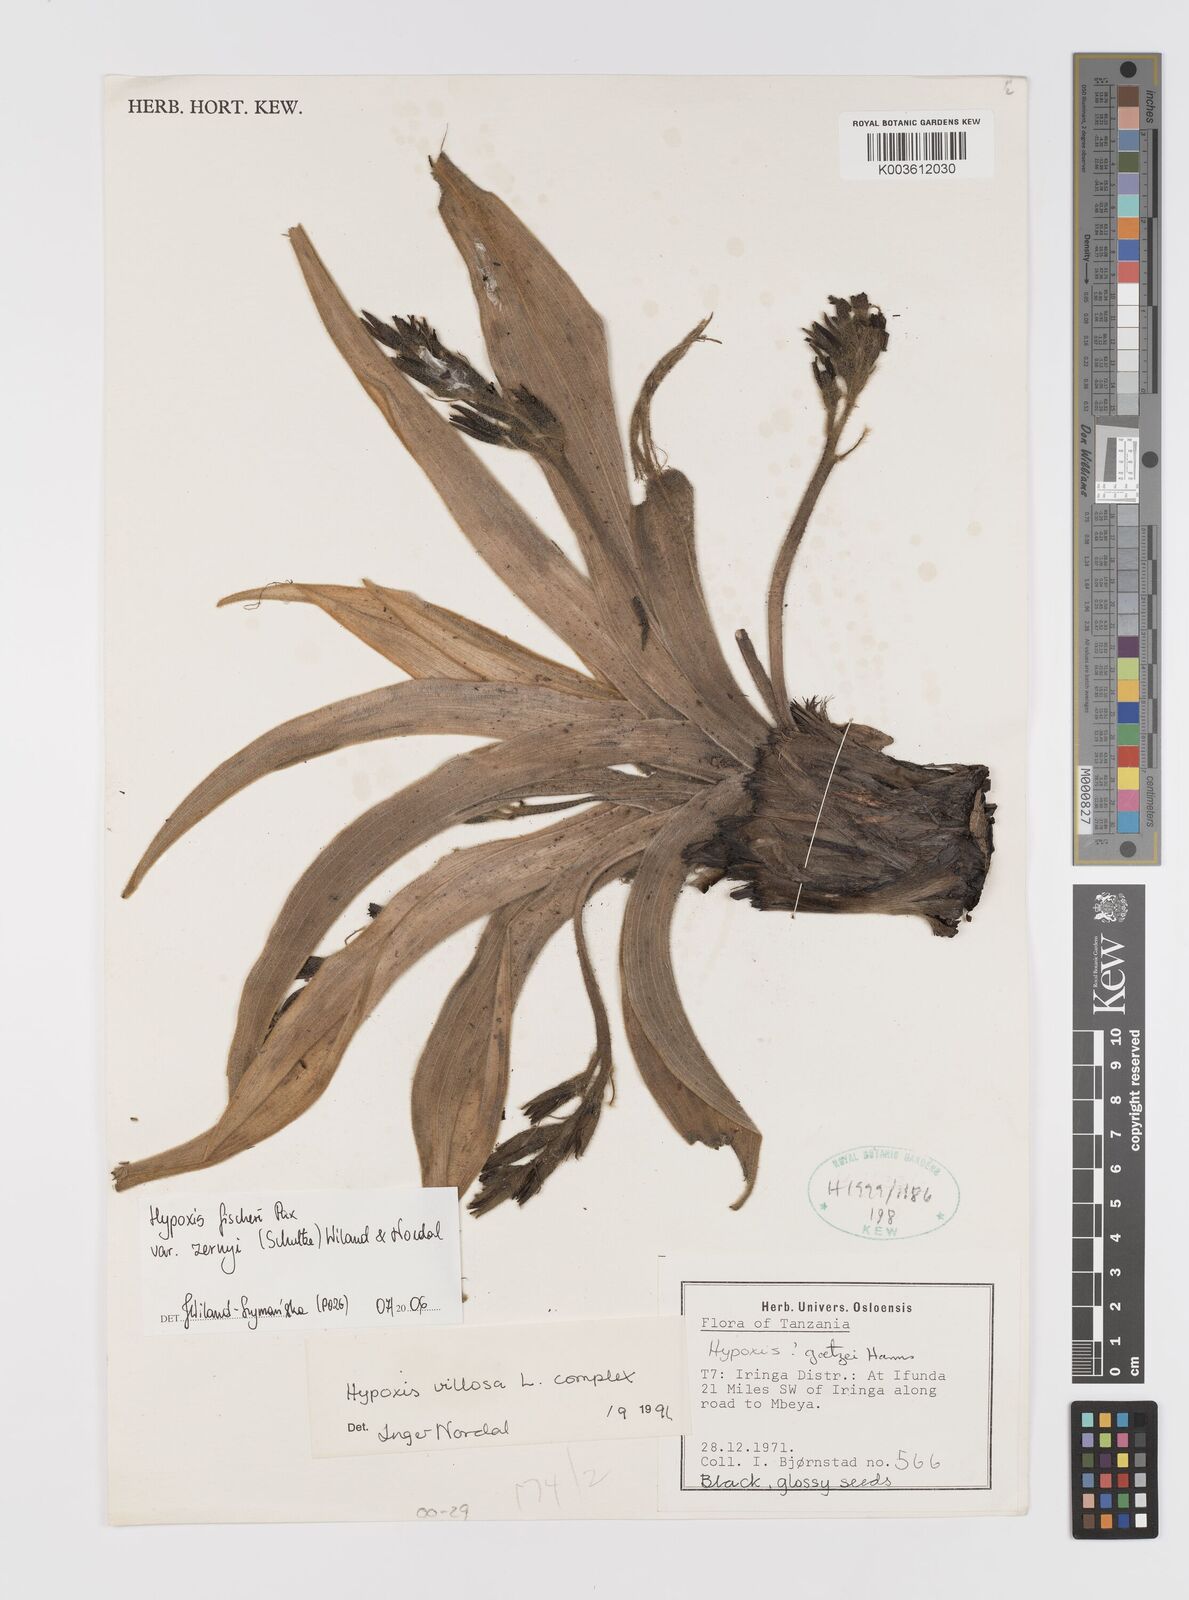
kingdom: Plantae
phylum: Tracheophyta
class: Liliopsida
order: Asparagales
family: Hypoxidaceae
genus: Hypoxis
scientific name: Hypoxis fischeri
